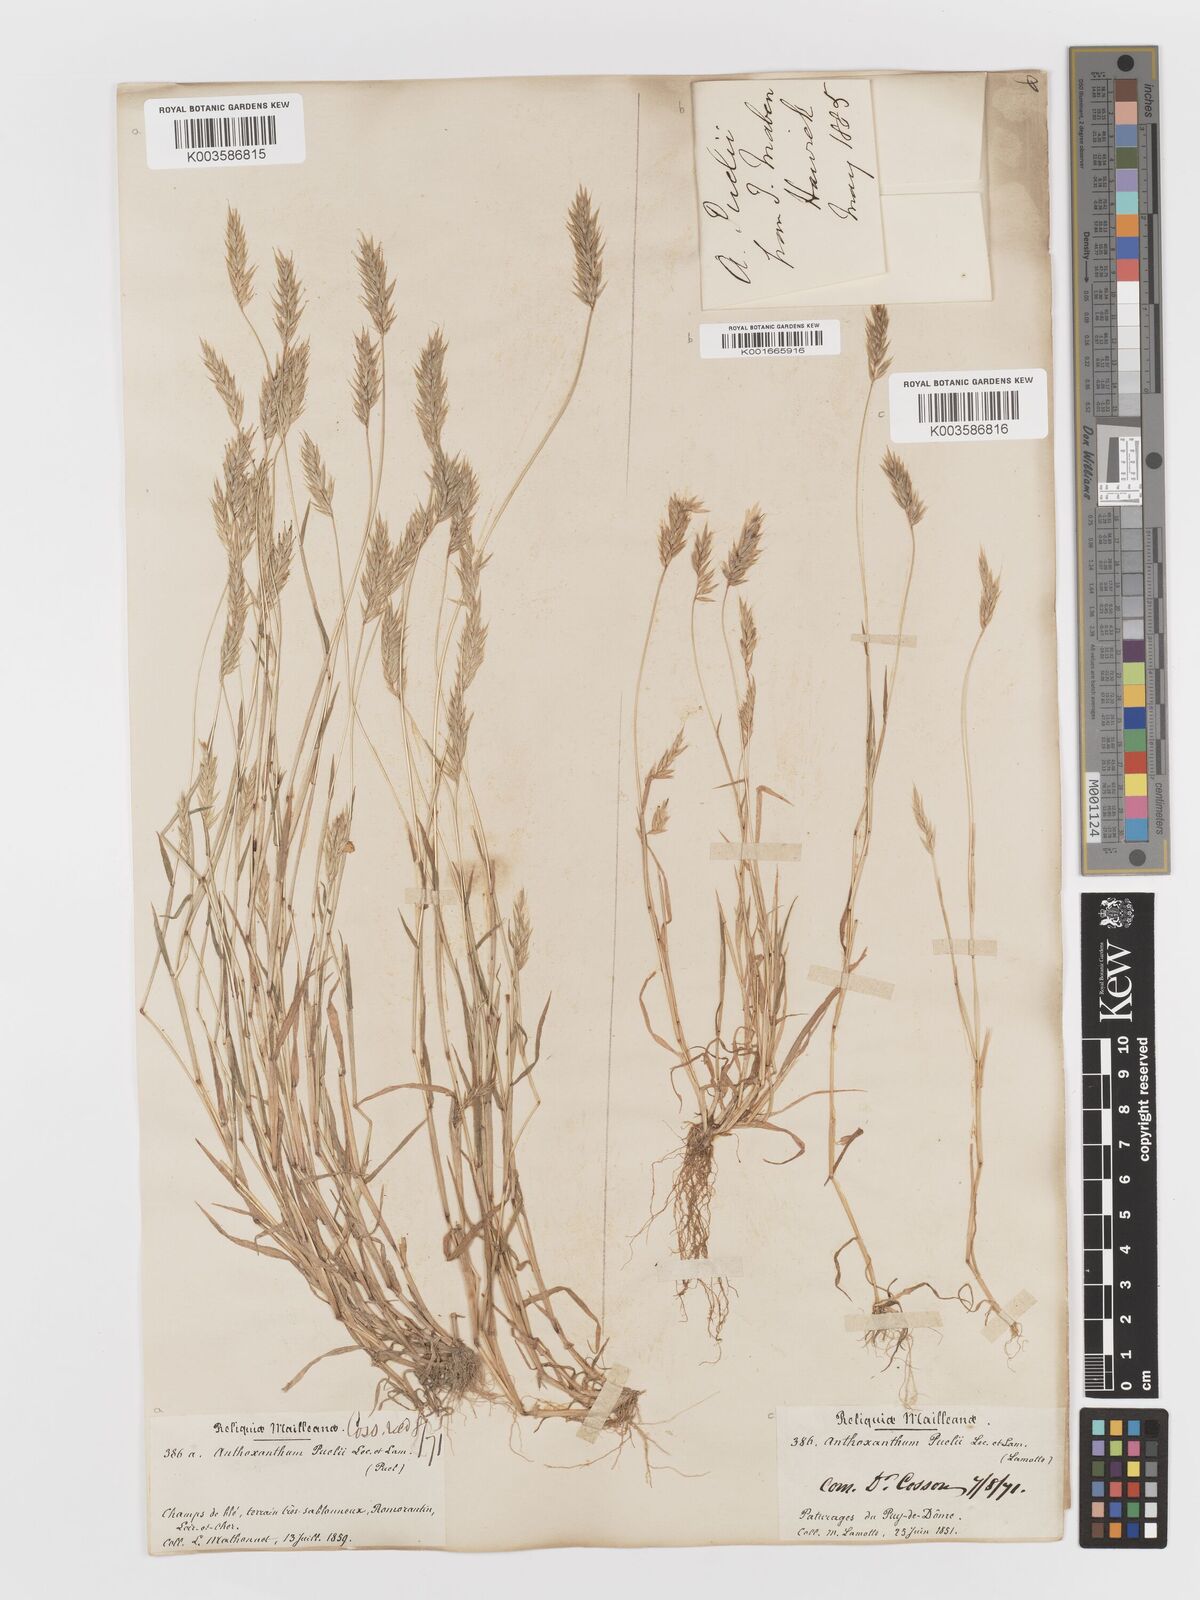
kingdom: Plantae
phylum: Tracheophyta
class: Liliopsida
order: Poales
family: Poaceae
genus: Anthoxanthum
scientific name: Anthoxanthum
